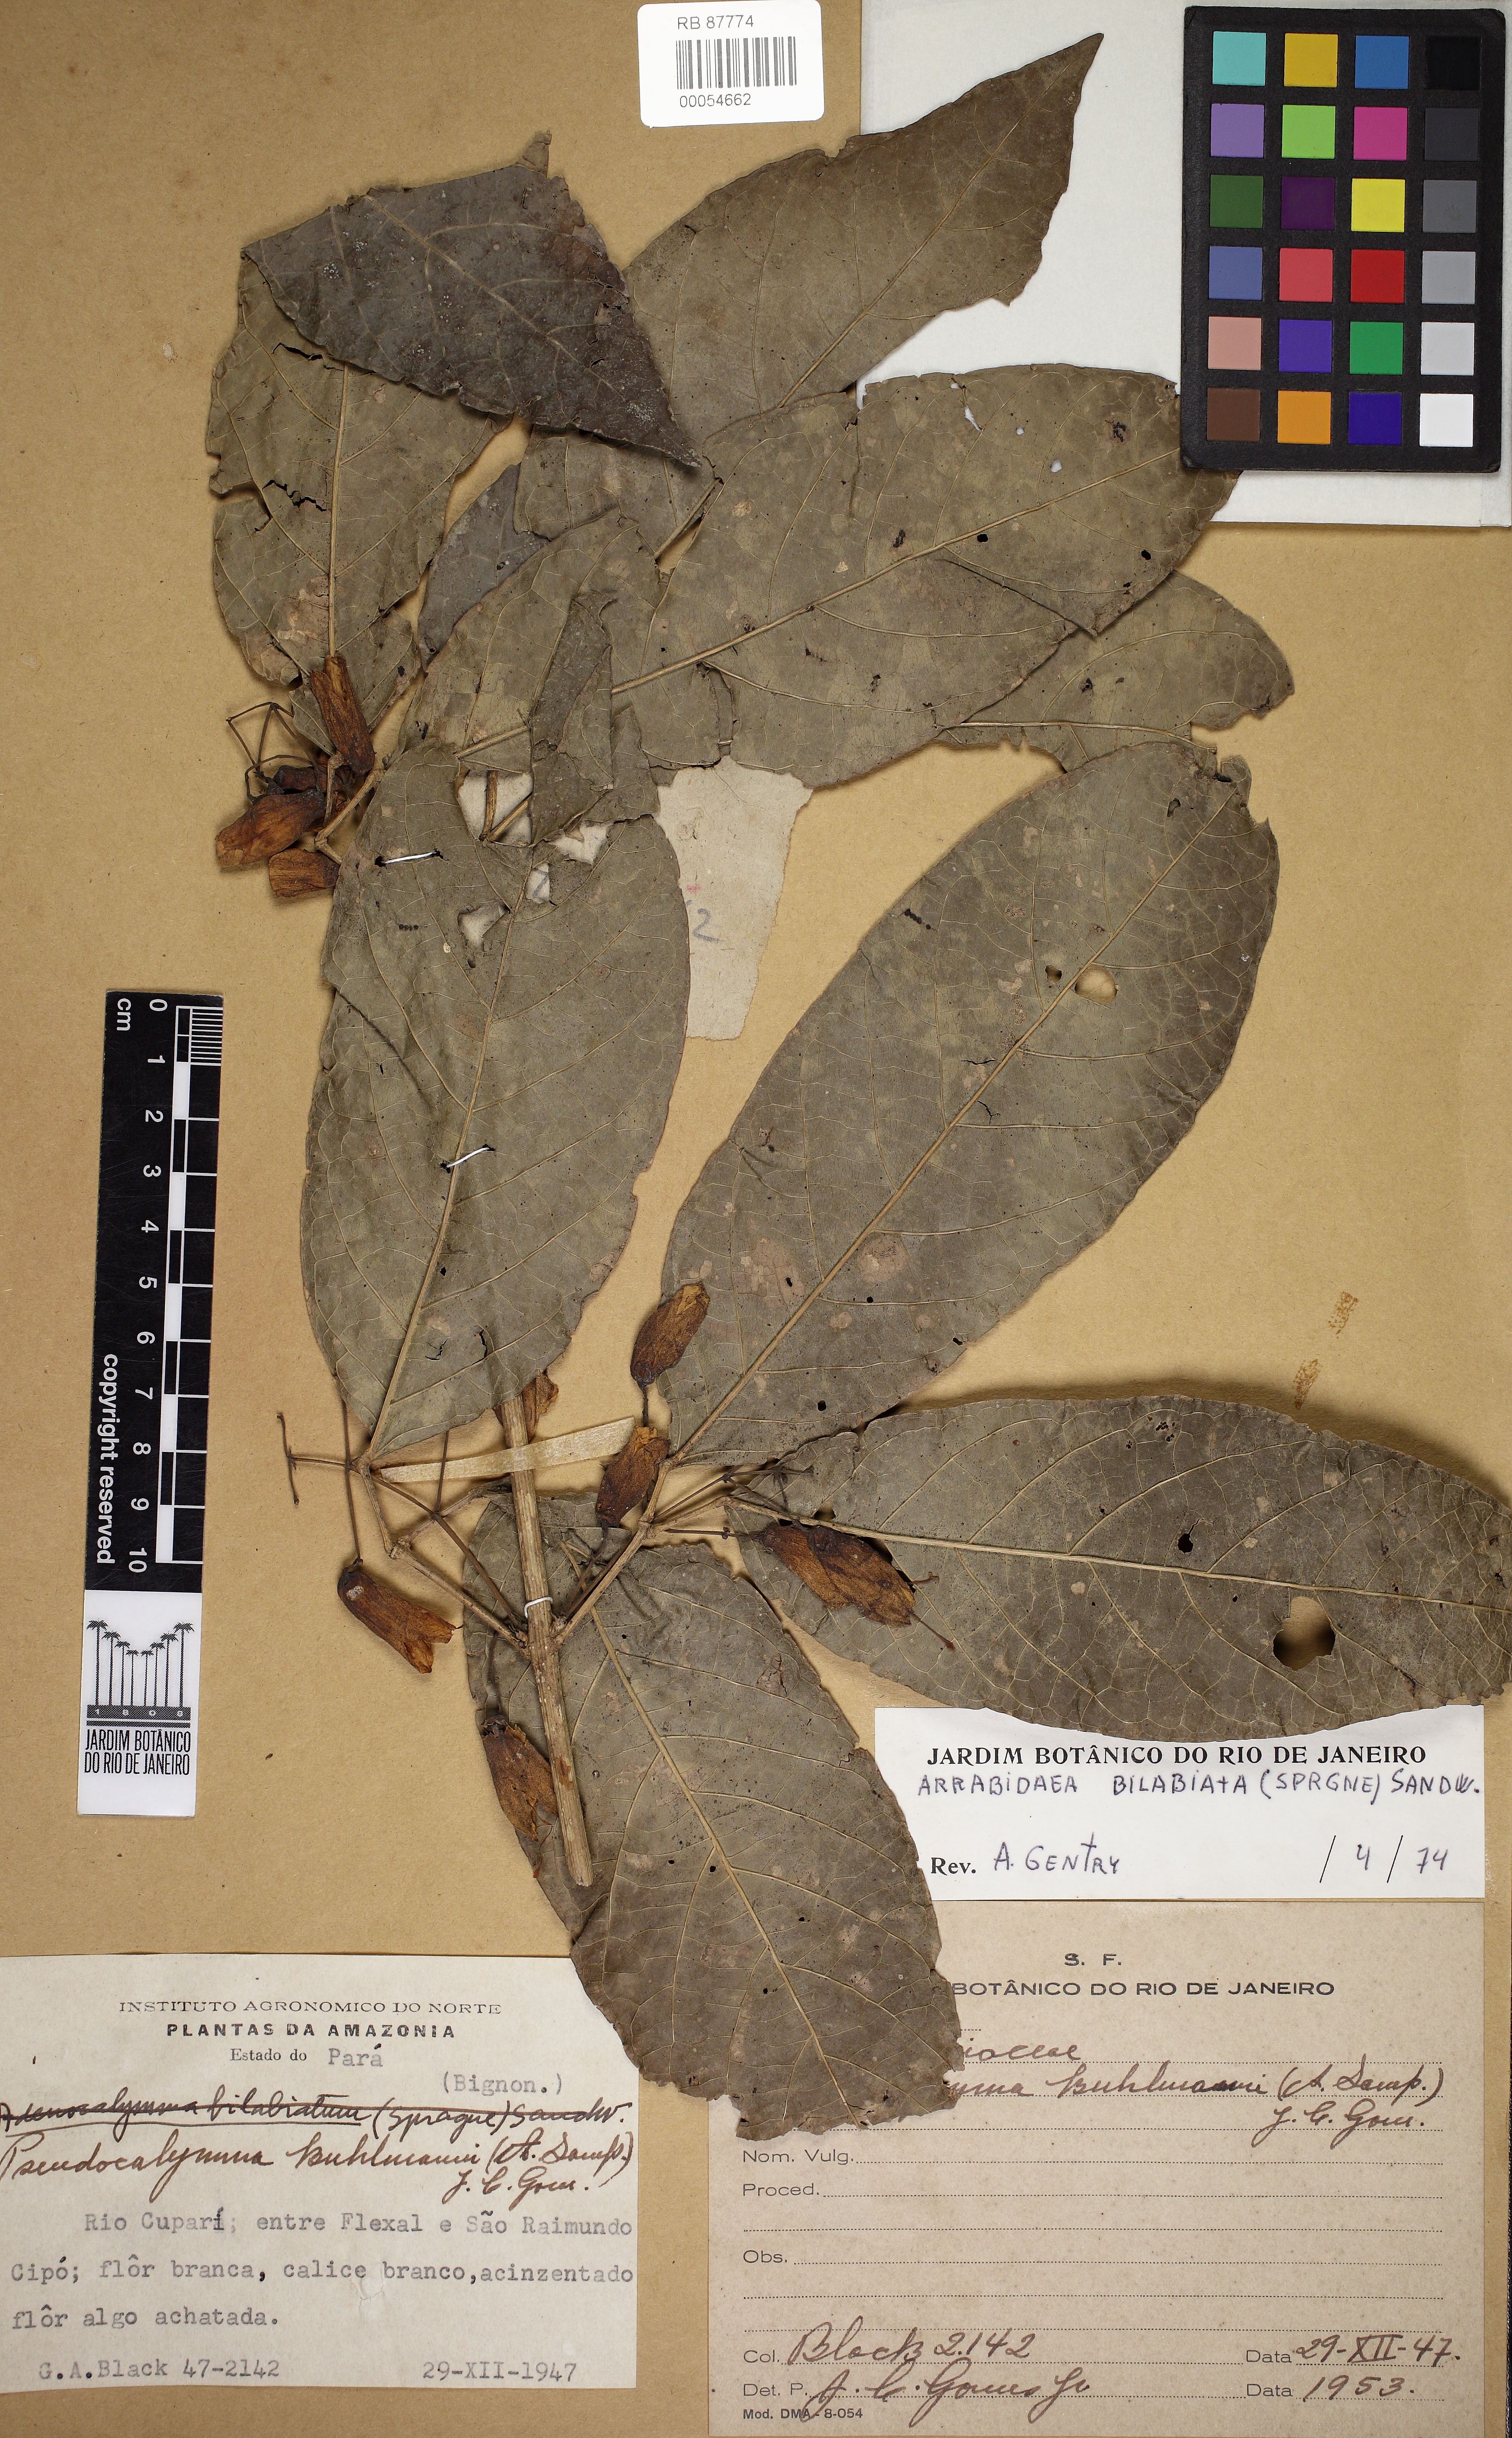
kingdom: Plantae
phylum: Tracheophyta
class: Magnoliopsida
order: Lamiales
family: Bignoniaceae
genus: Tanaecium
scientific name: Tanaecium bilabiatum
